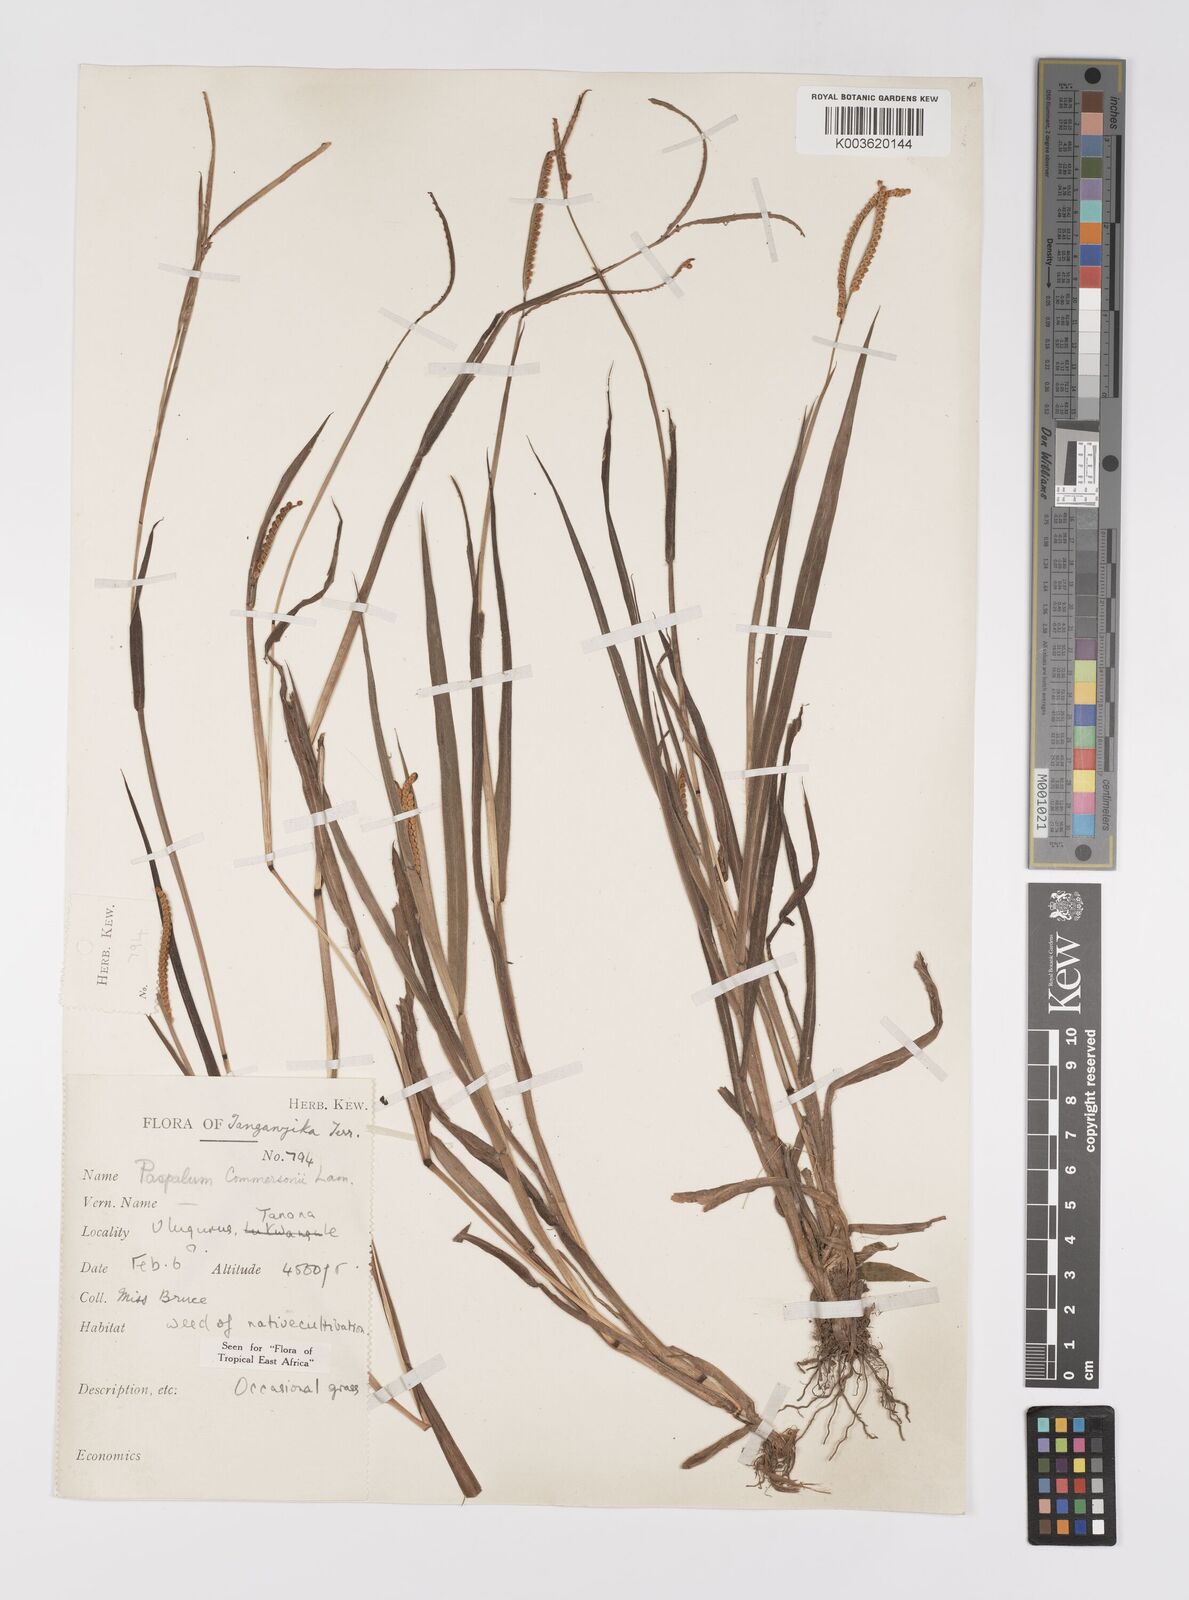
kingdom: Plantae
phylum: Tracheophyta
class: Liliopsida
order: Poales
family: Poaceae
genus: Paspalum
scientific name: Paspalum scrobiculatum
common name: Kodo millet
